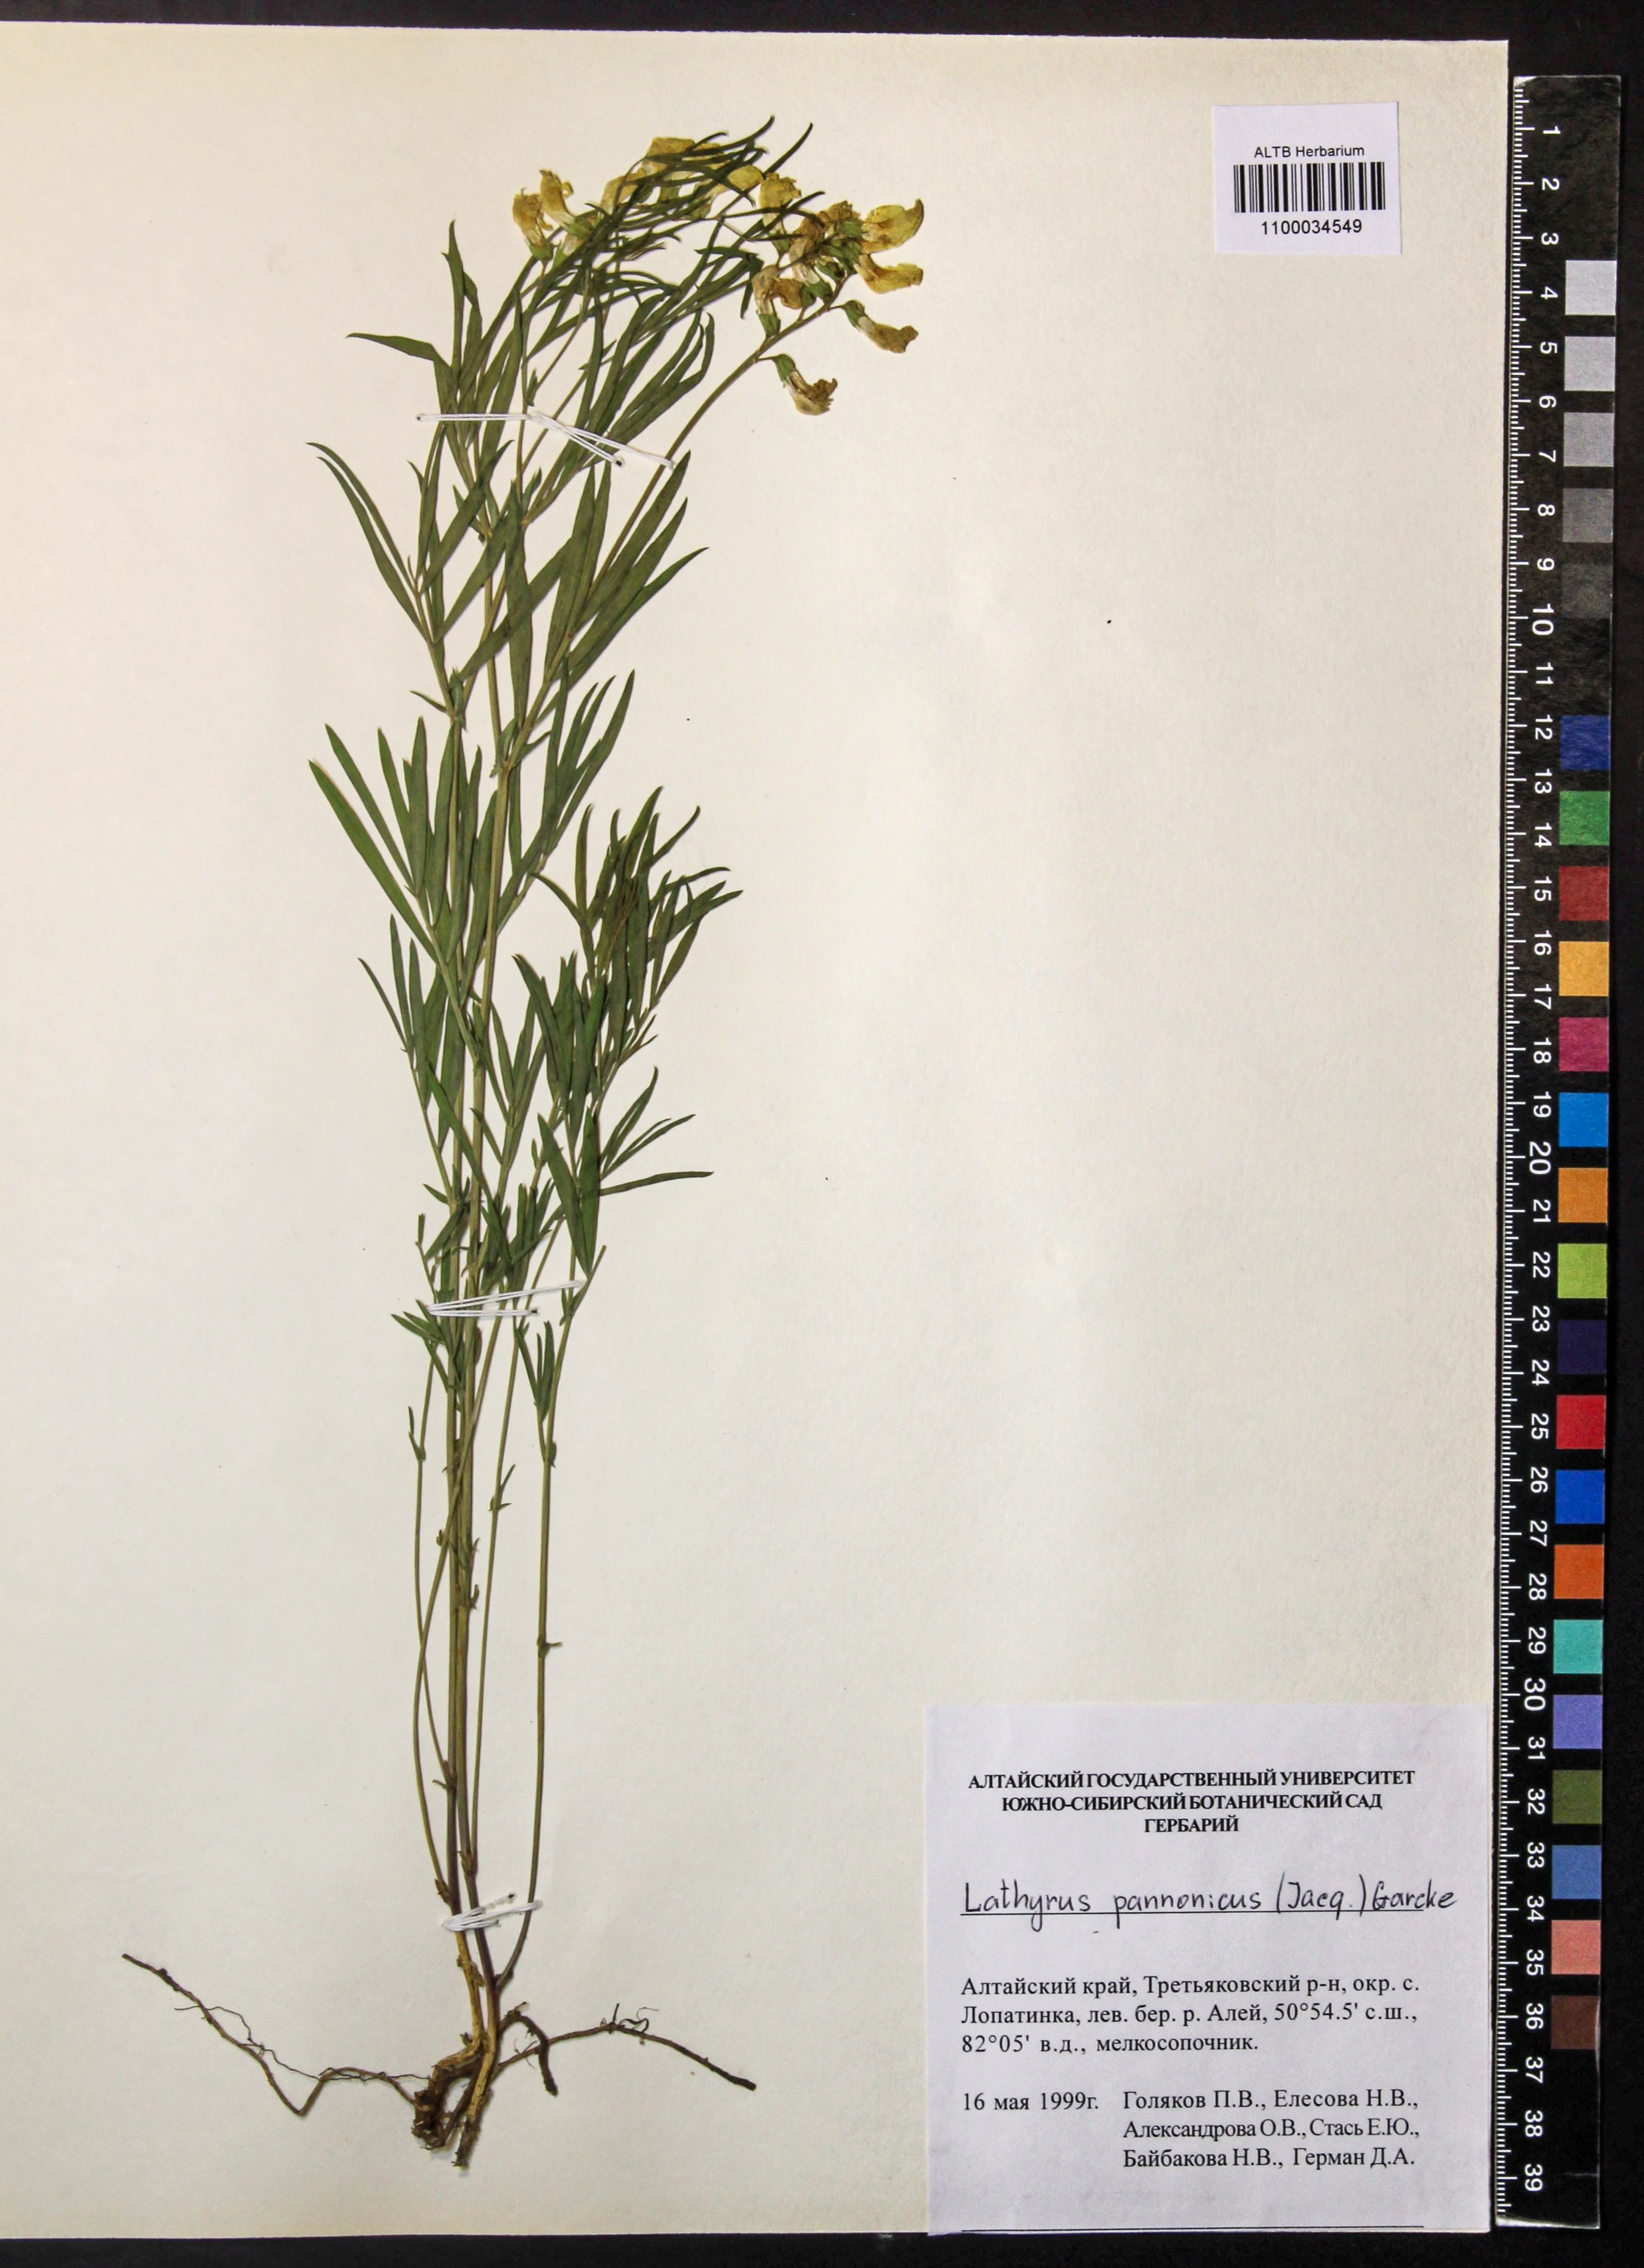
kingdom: Plantae
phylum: Tracheophyta
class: Magnoliopsida
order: Fabales
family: Fabaceae
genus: Lathyrus
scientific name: Lathyrus pannonicus
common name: Pea
